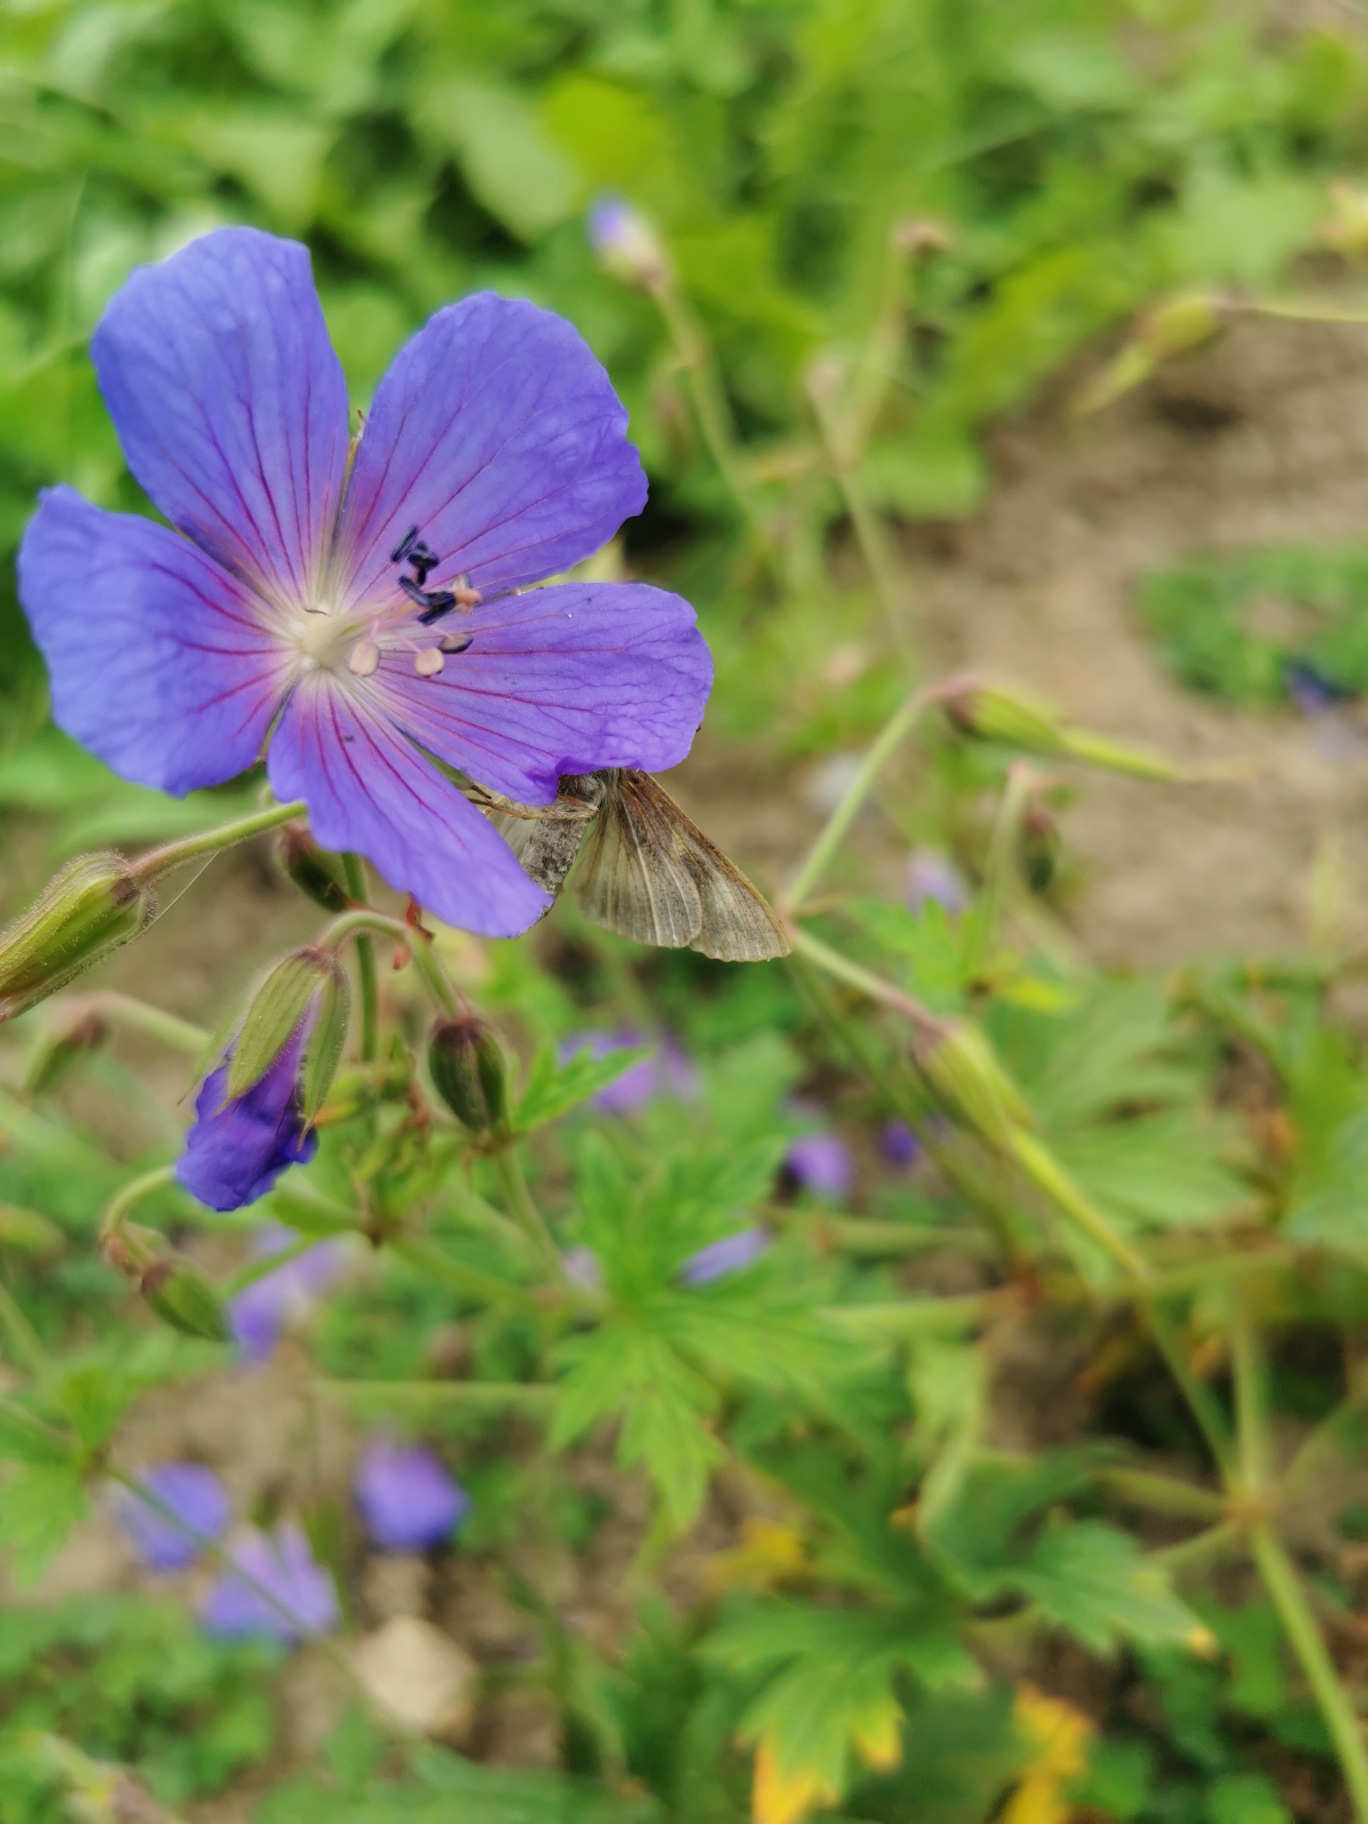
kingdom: Animalia
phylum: Arthropoda
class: Insecta
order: Lepidoptera
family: Noctuidae
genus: Autographa
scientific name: Autographa gamma
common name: Gammaugle
